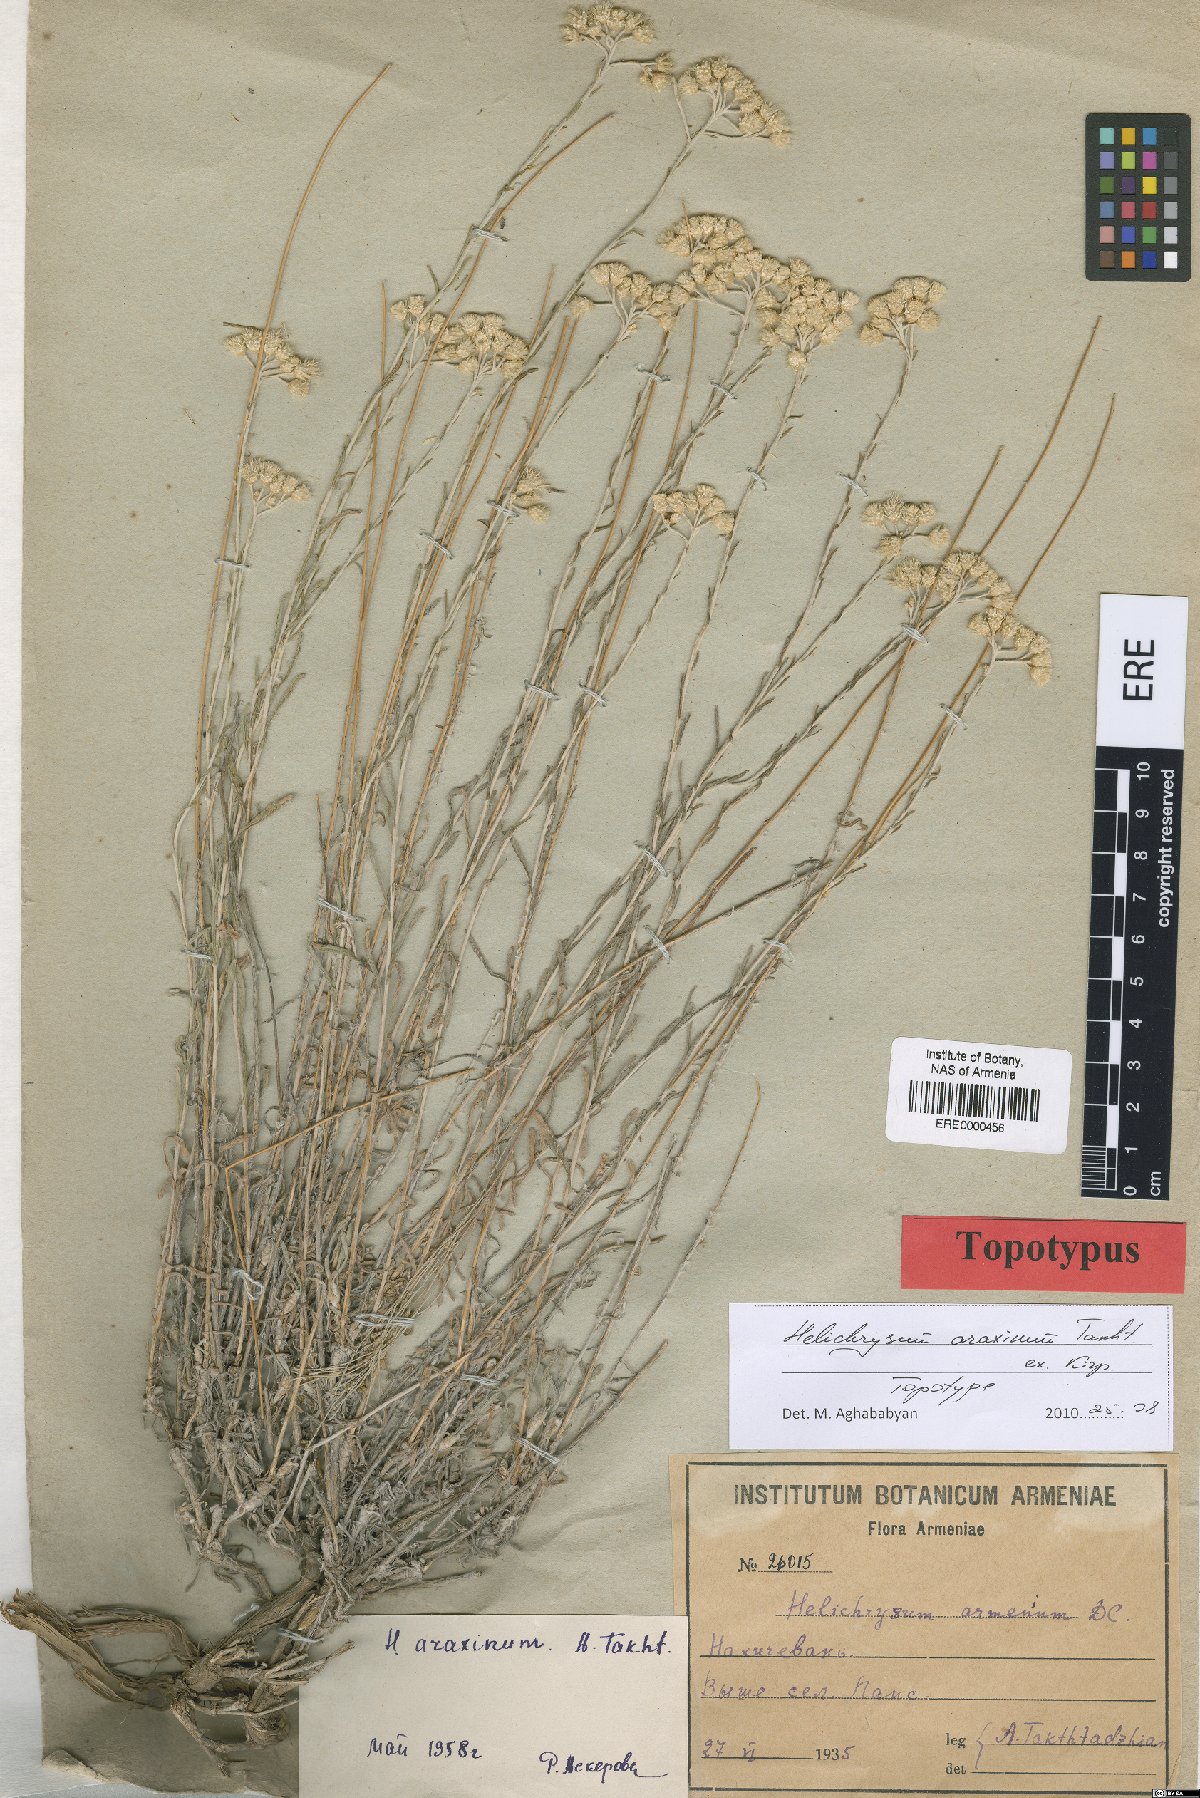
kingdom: Plantae
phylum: Tracheophyta
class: Magnoliopsida
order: Asterales
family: Asteraceae
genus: Helichrysum
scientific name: Helichrysum araxinum
